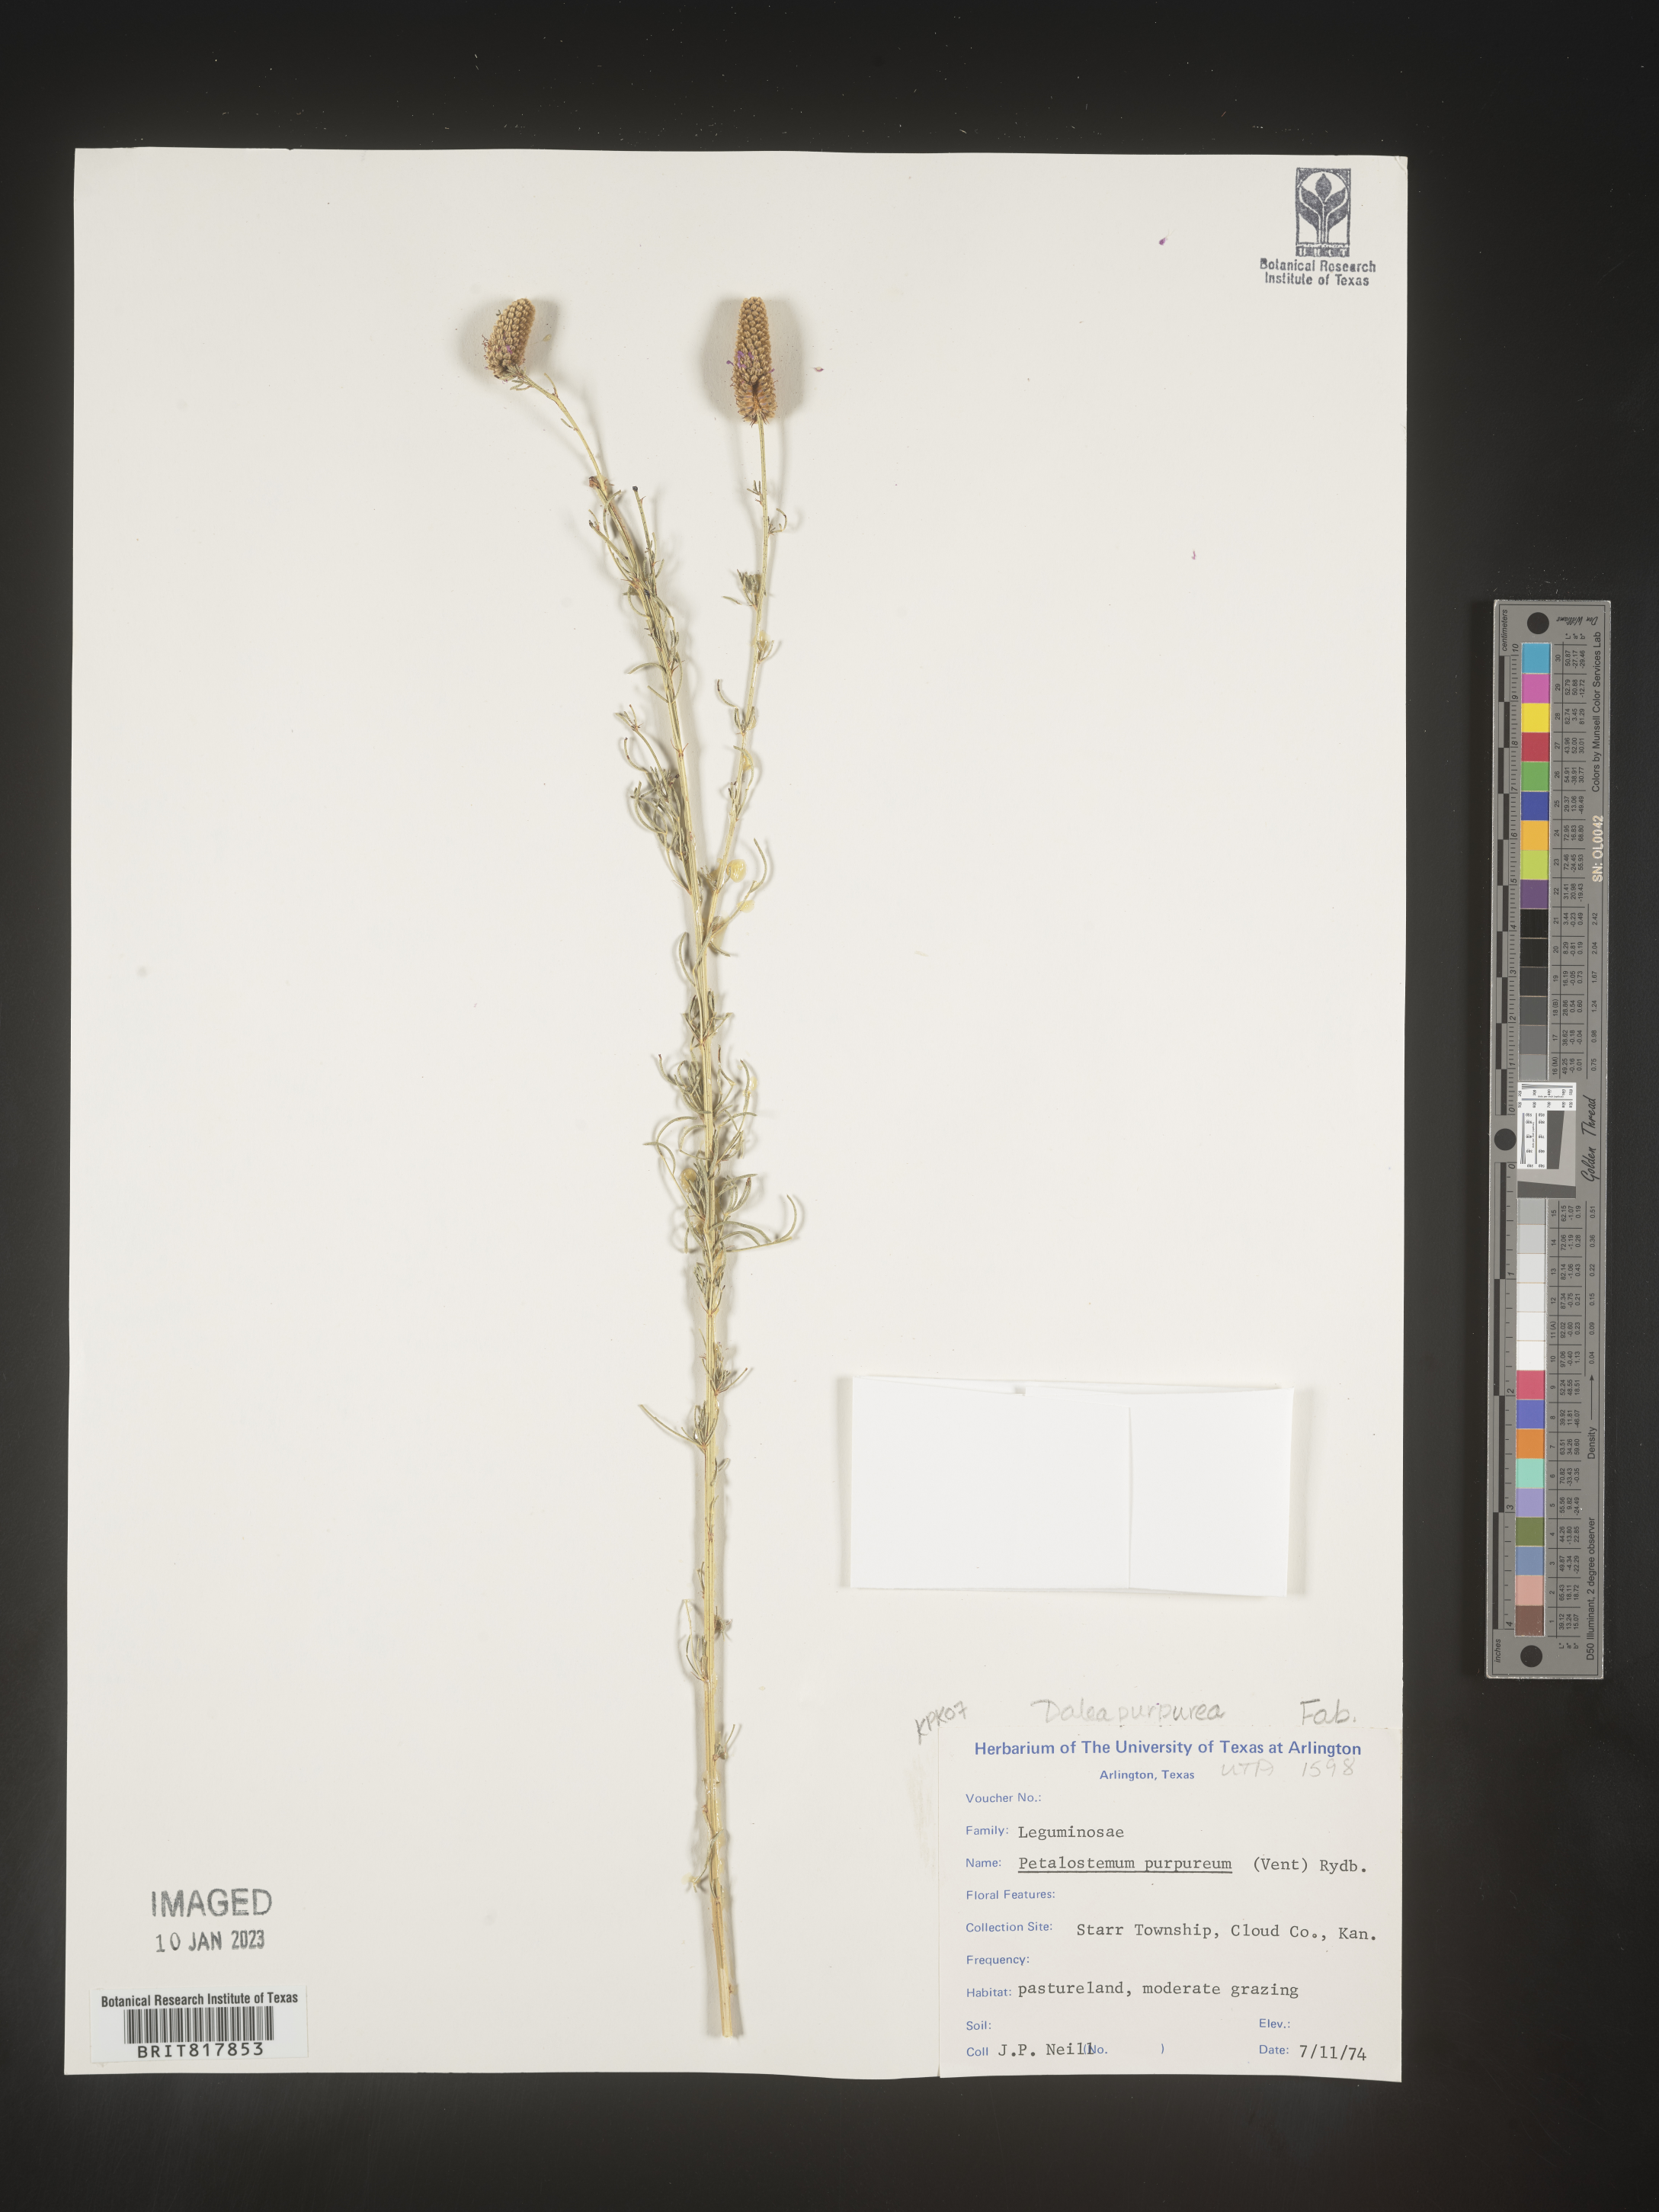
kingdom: Plantae
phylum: Tracheophyta
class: Magnoliopsida
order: Fabales
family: Fabaceae
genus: Dalea
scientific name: Dalea purpurea
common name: Purple prairie-clover
